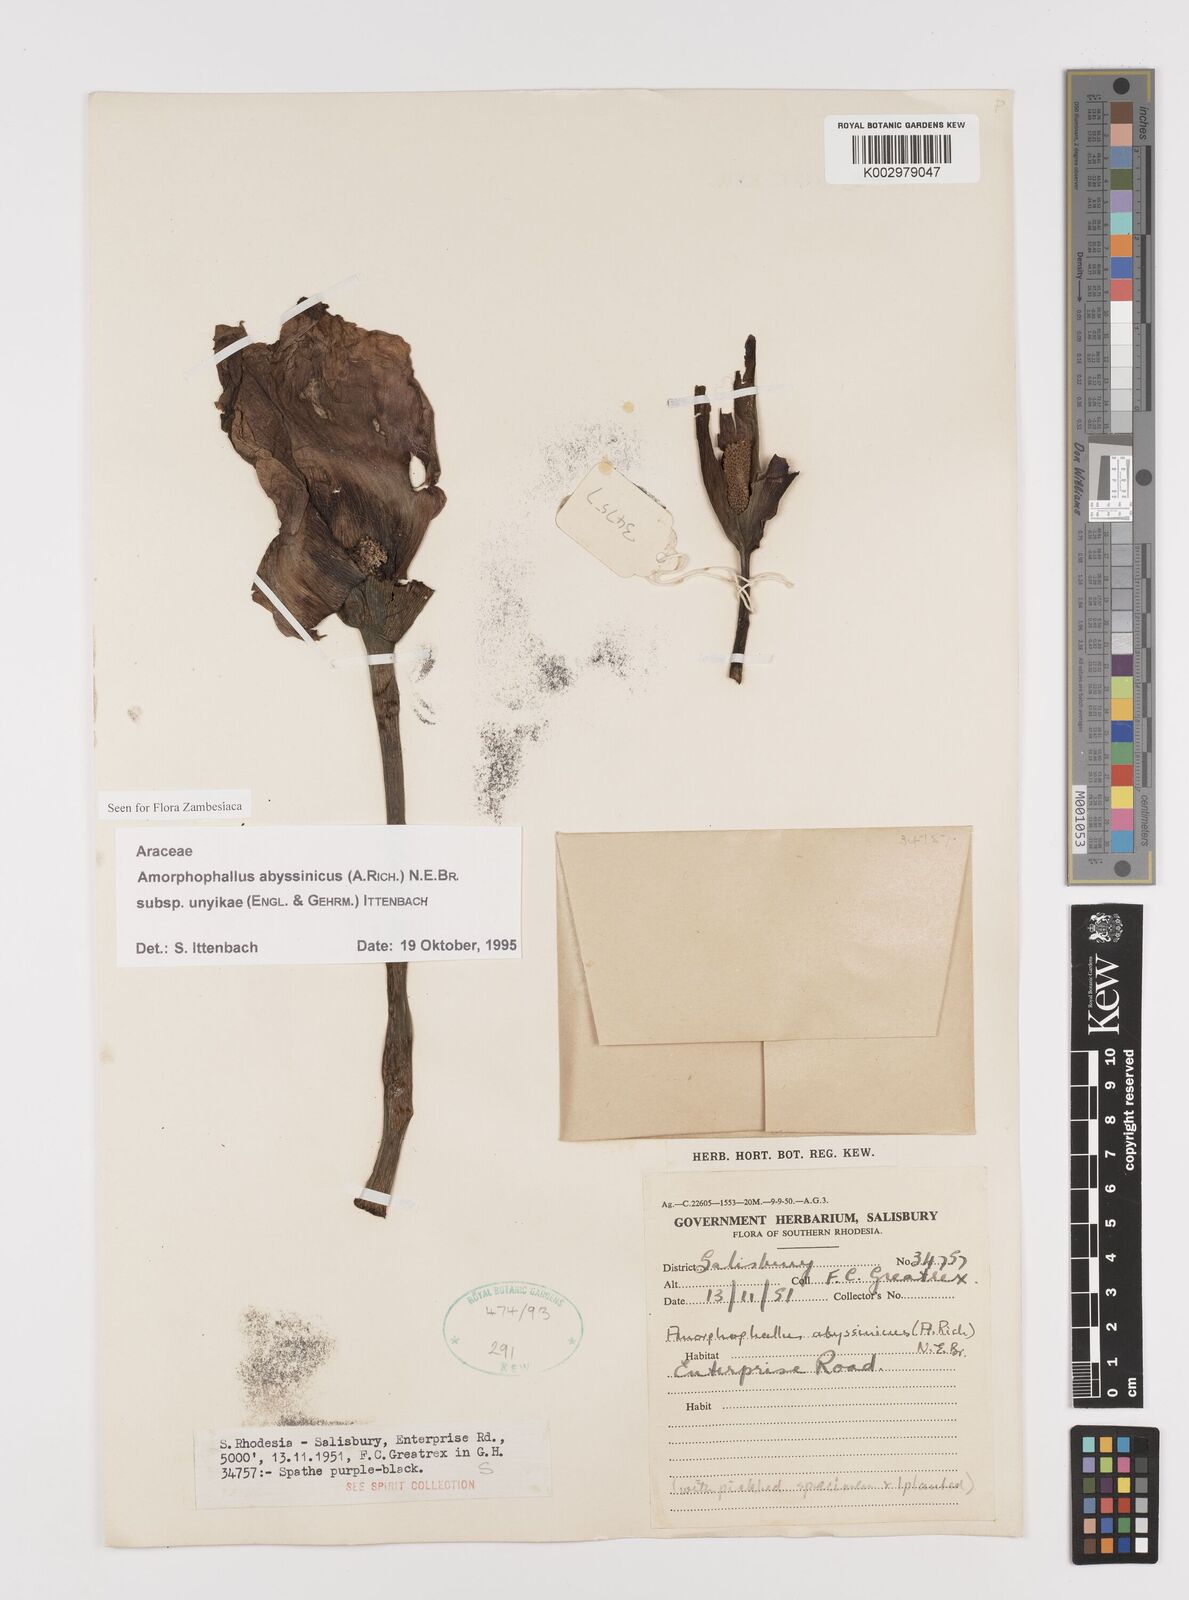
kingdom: Plantae
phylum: Tracheophyta
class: Liliopsida
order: Alismatales
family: Araceae
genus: Amorphophallus
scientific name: Amorphophallus abyssinicus
